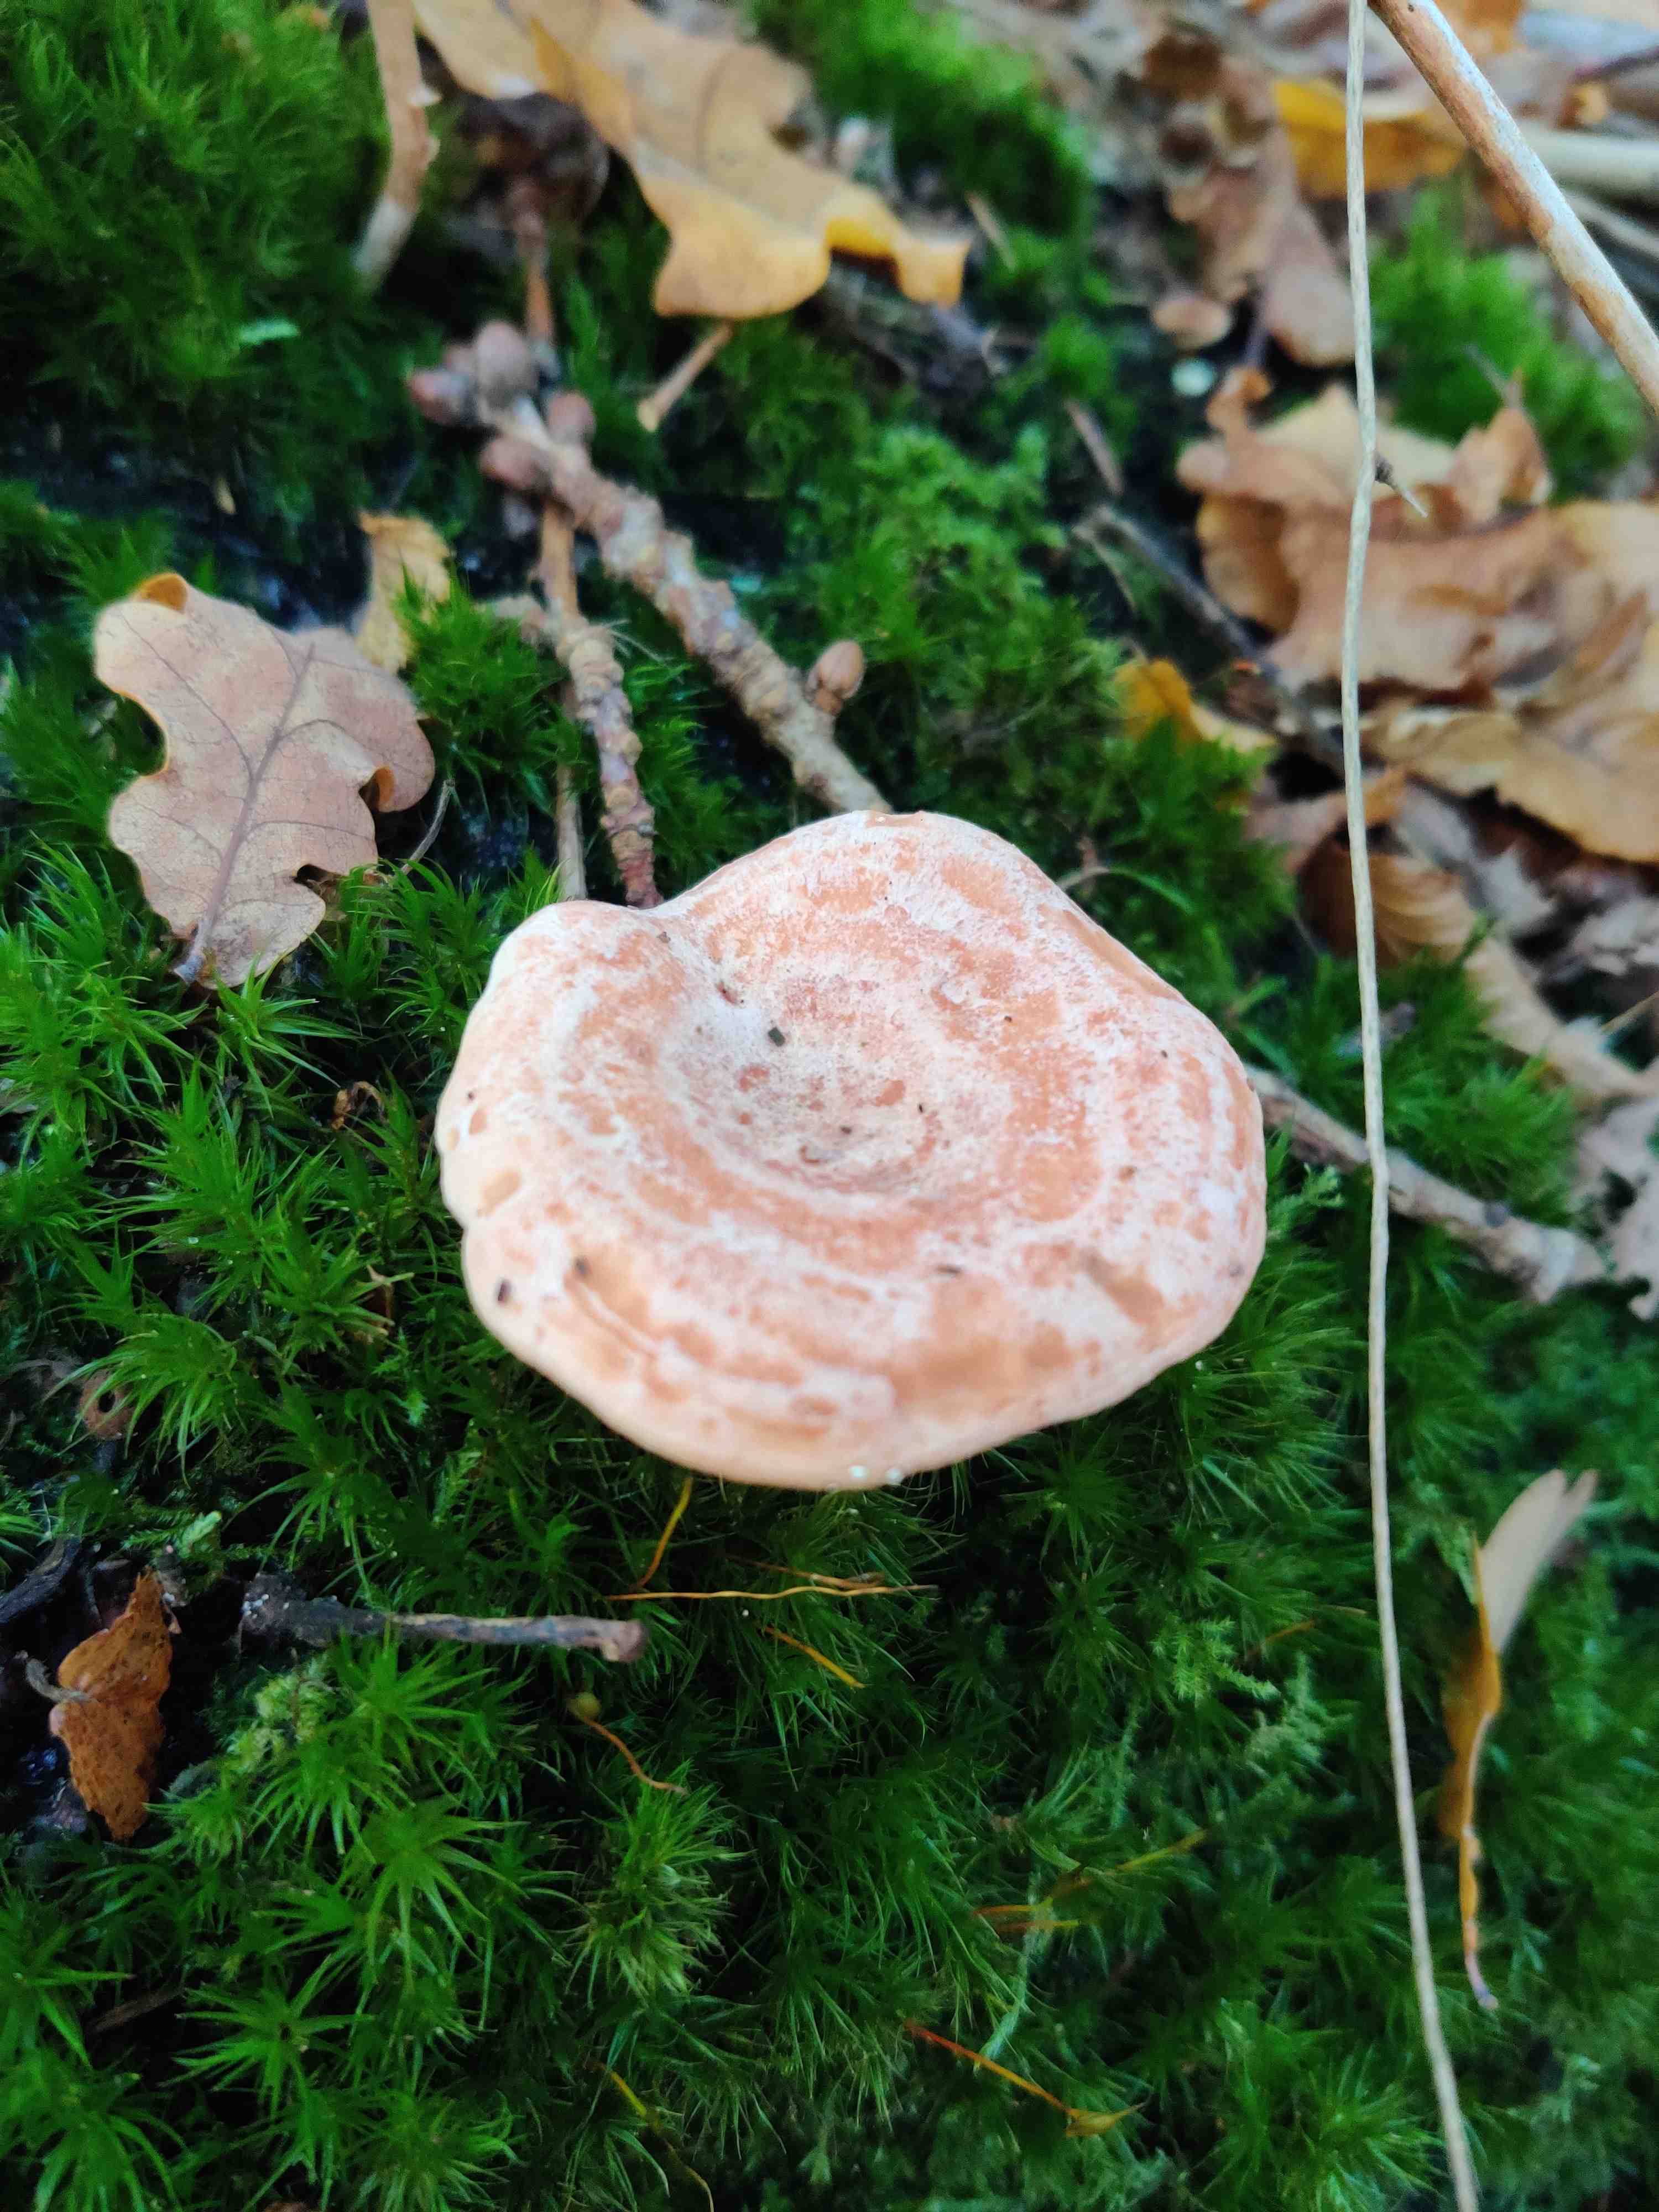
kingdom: Fungi
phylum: Basidiomycota
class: Agaricomycetes
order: Russulales
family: Russulaceae
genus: Lactarius
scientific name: Lactarius
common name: mælkehat
